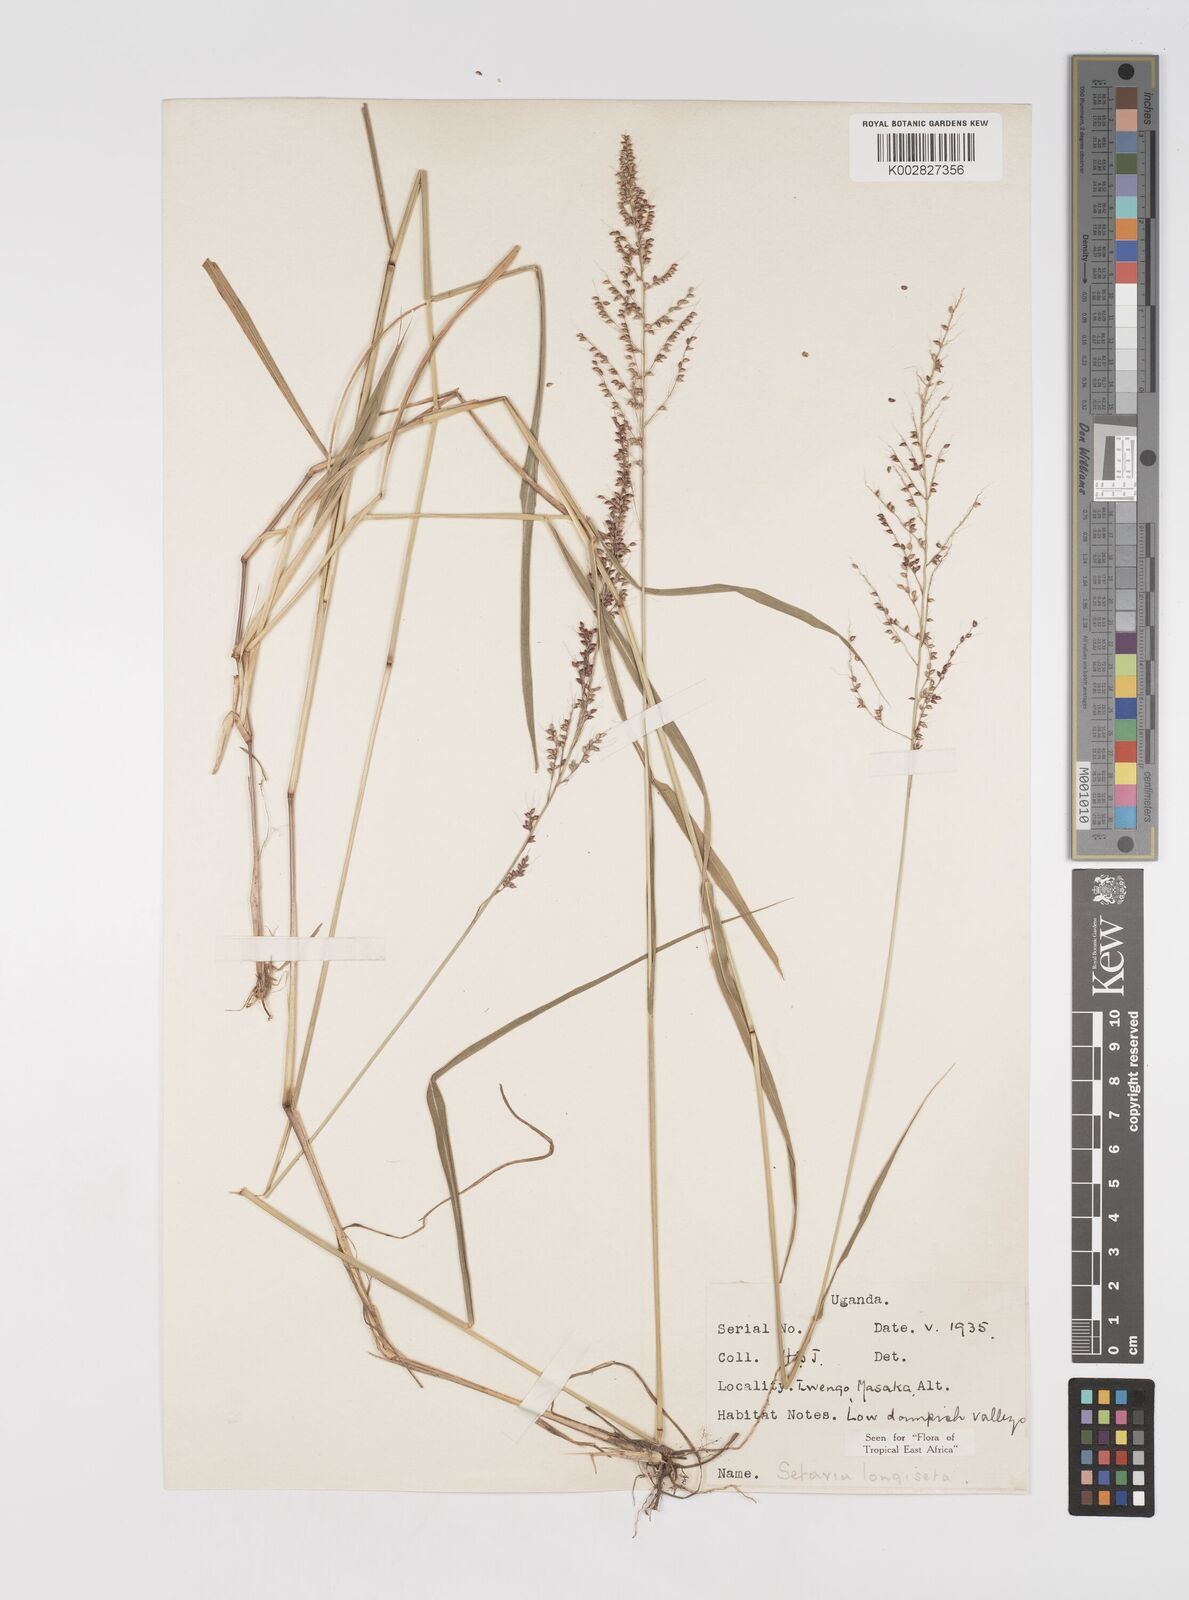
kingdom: Plantae
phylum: Tracheophyta
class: Liliopsida
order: Poales
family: Poaceae
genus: Setaria
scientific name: Setaria longiseta
